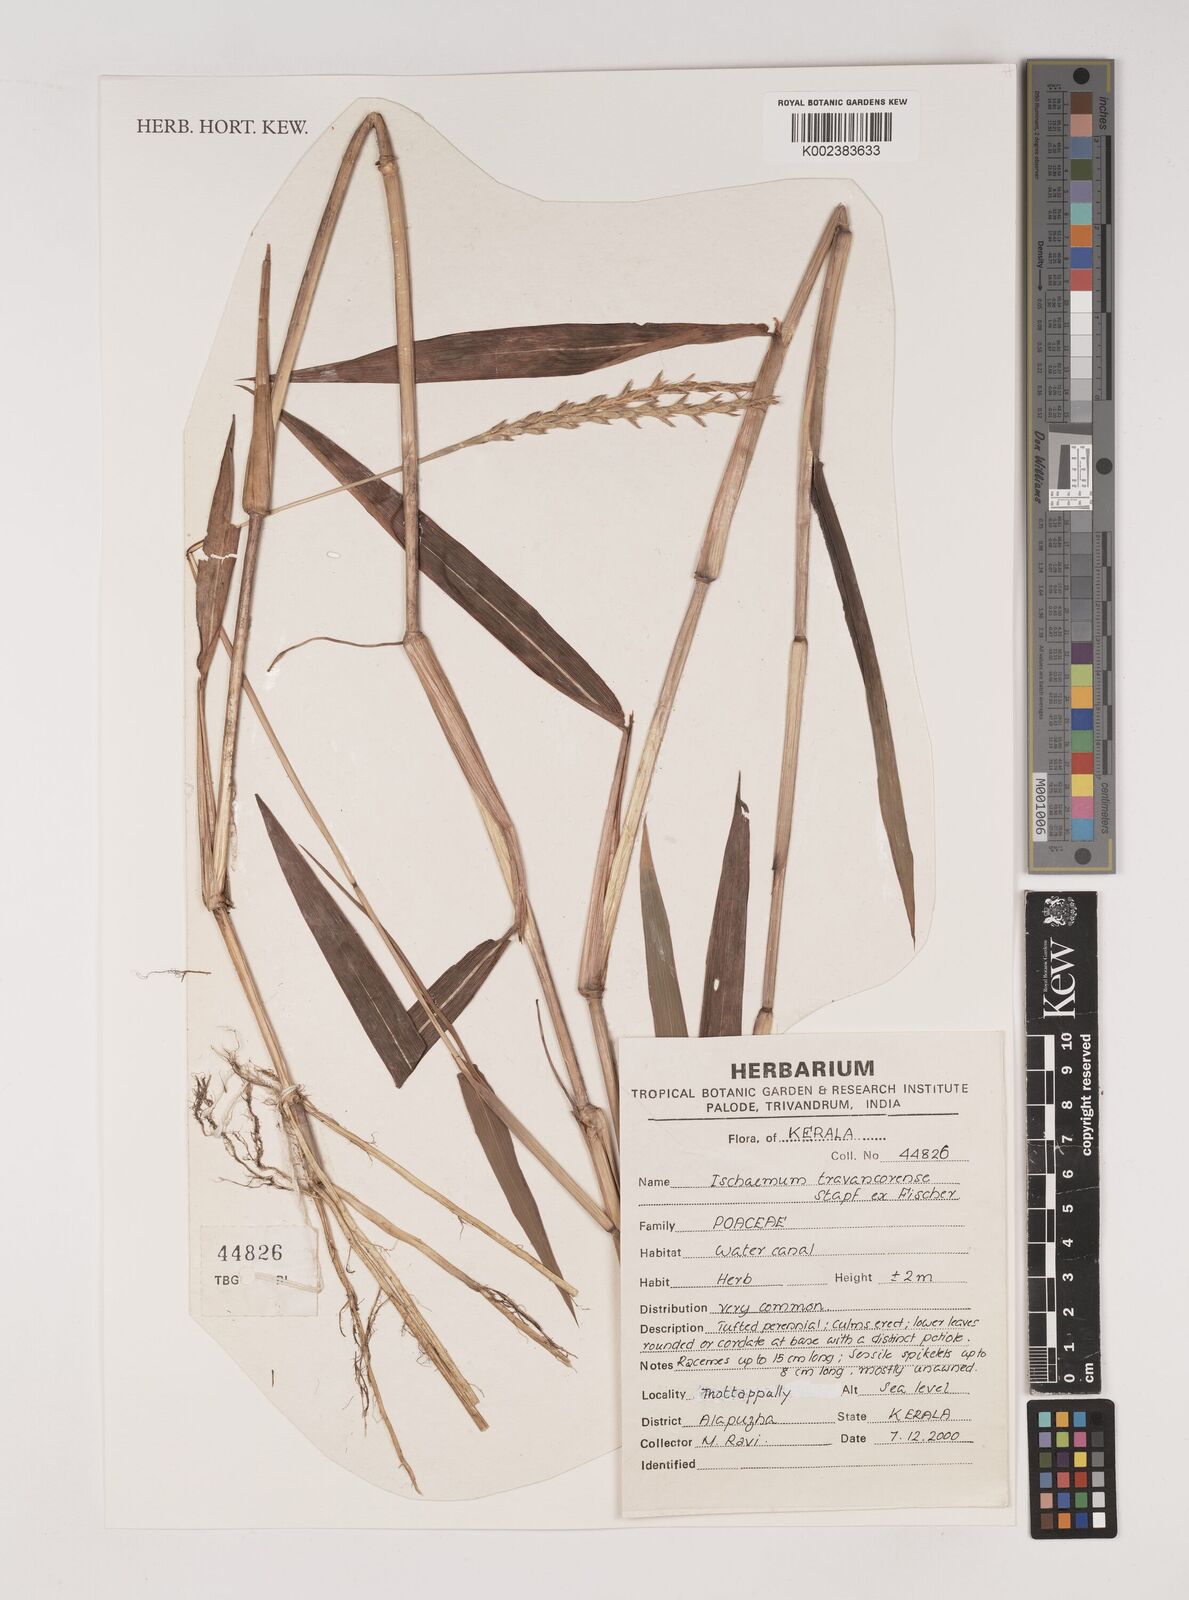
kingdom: Plantae
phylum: Tracheophyta
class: Liliopsida
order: Poales
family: Poaceae
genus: Ischaemum
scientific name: Ischaemum travancorense
